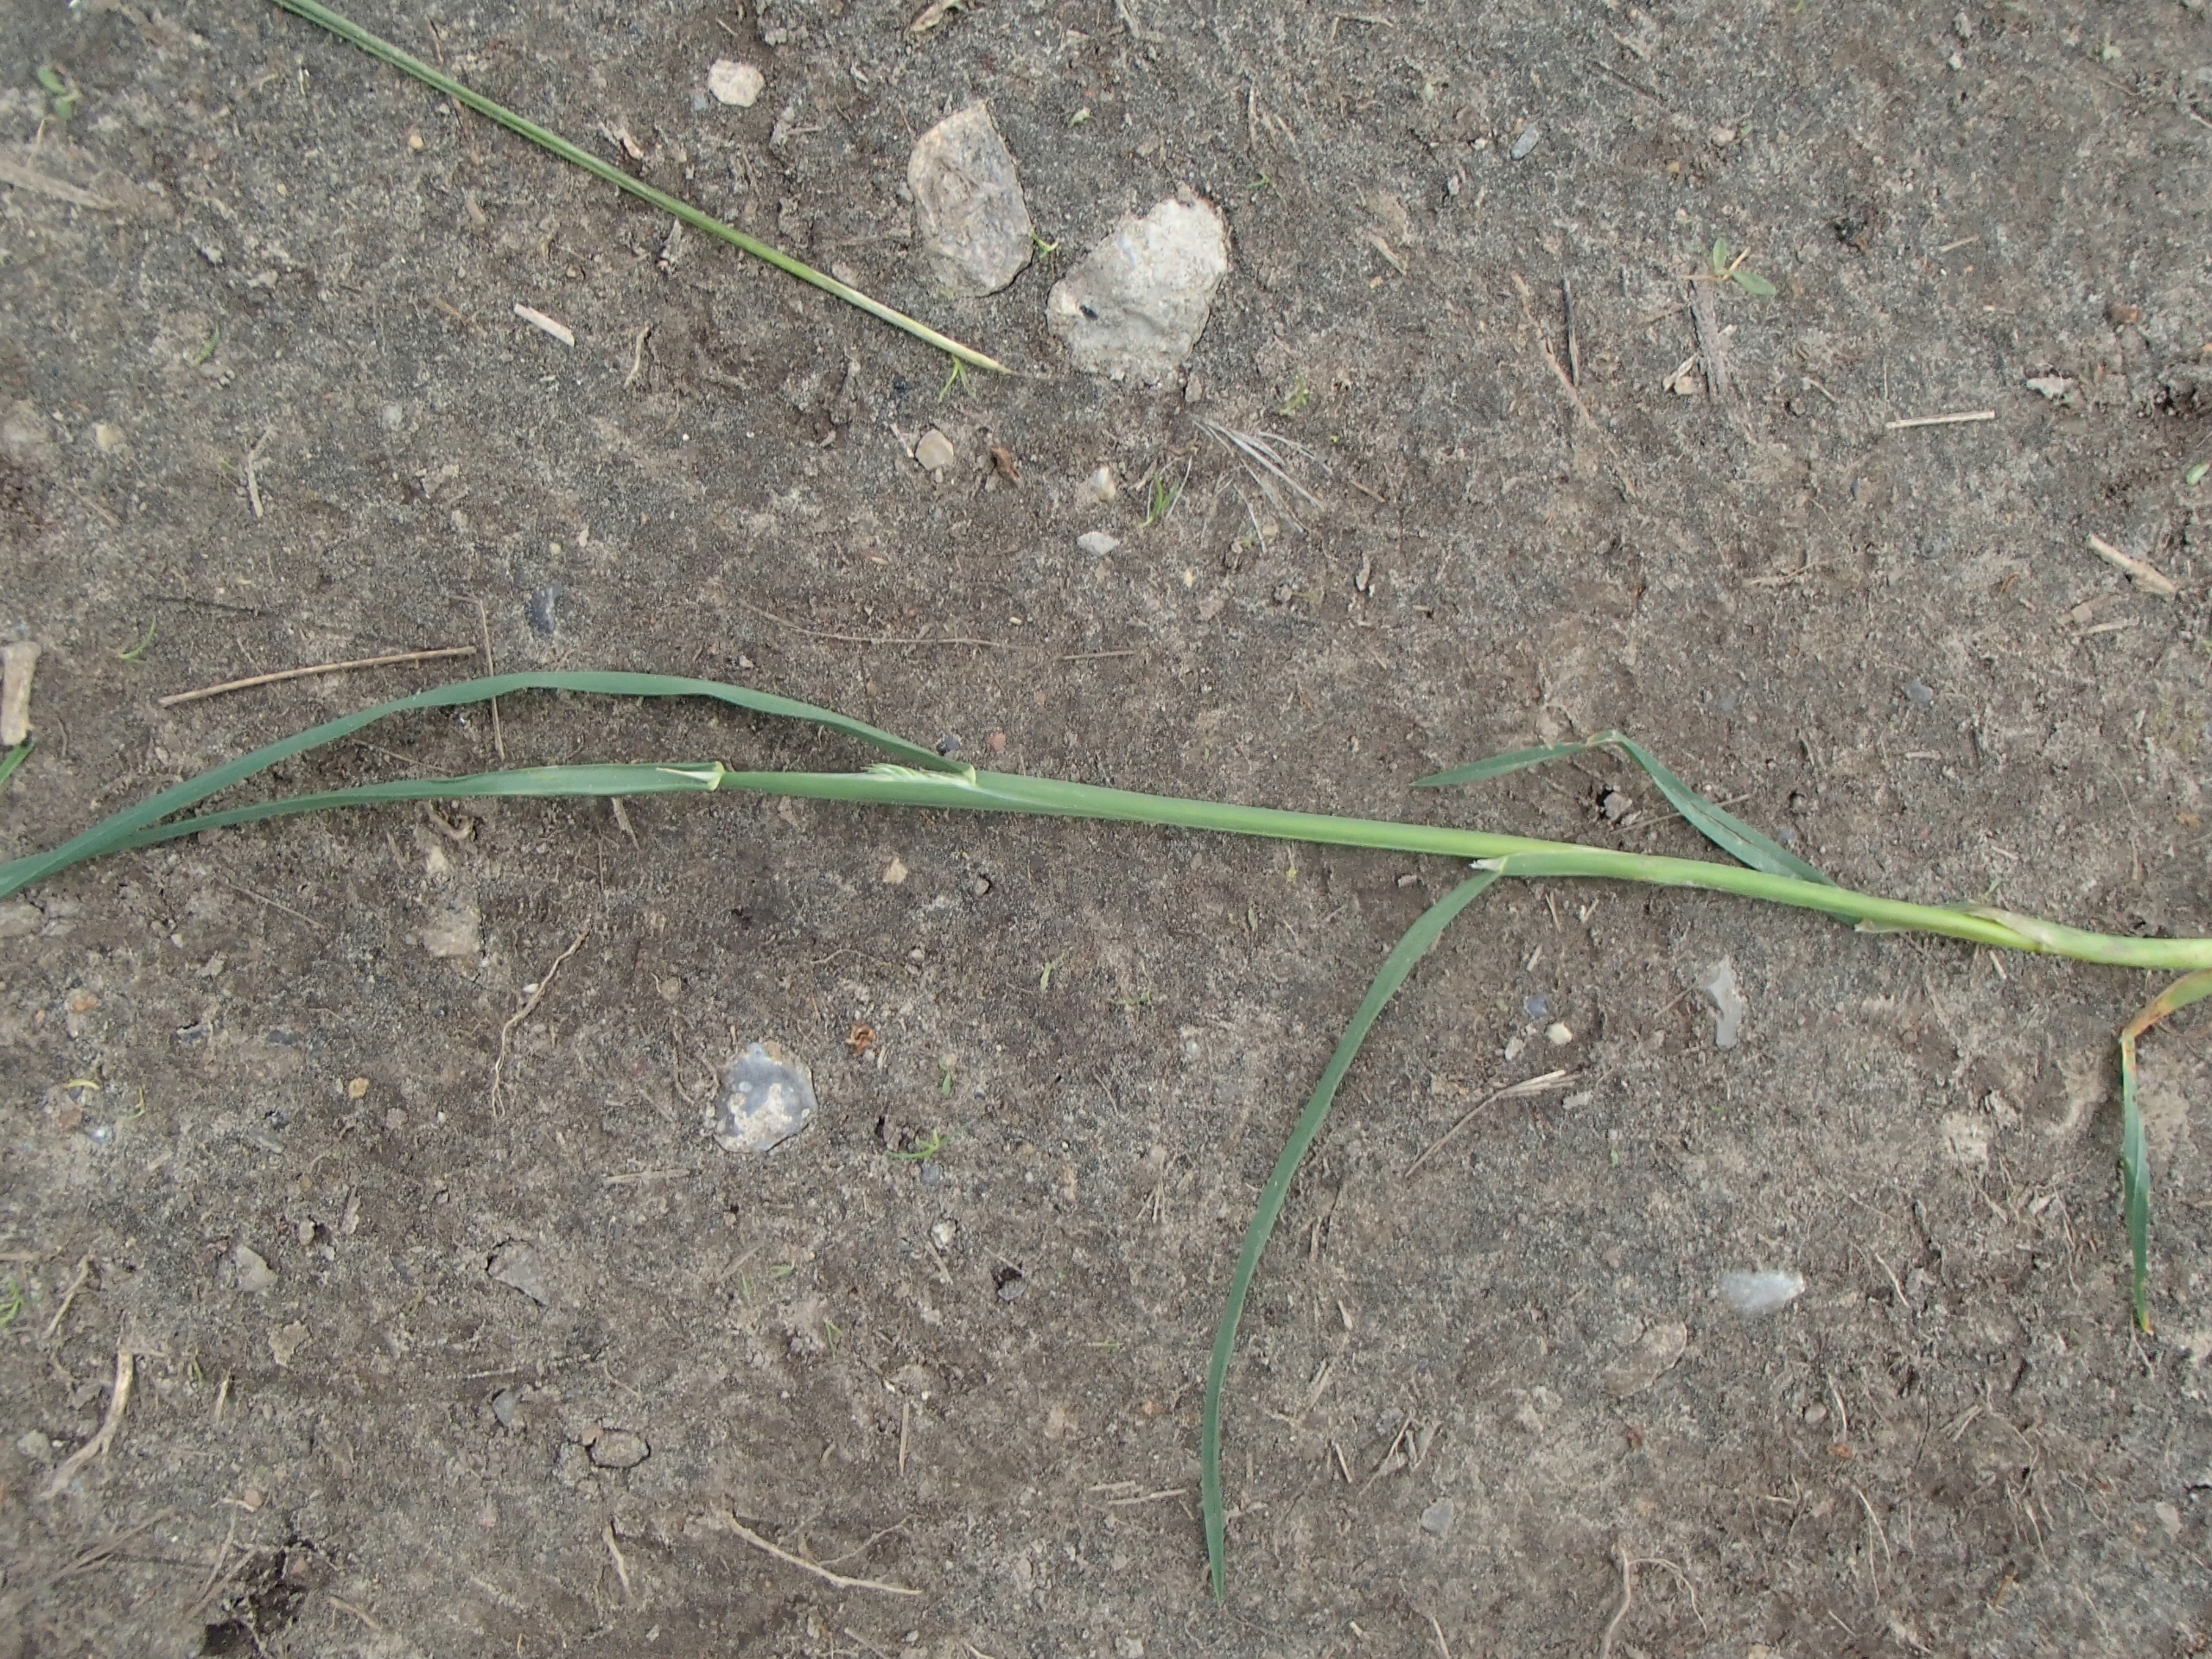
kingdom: Plantae
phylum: Tracheophyta
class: Liliopsida
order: Poales
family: Poaceae
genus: Dactylis
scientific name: Dactylis glomerata
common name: Almindelig hundegræs
